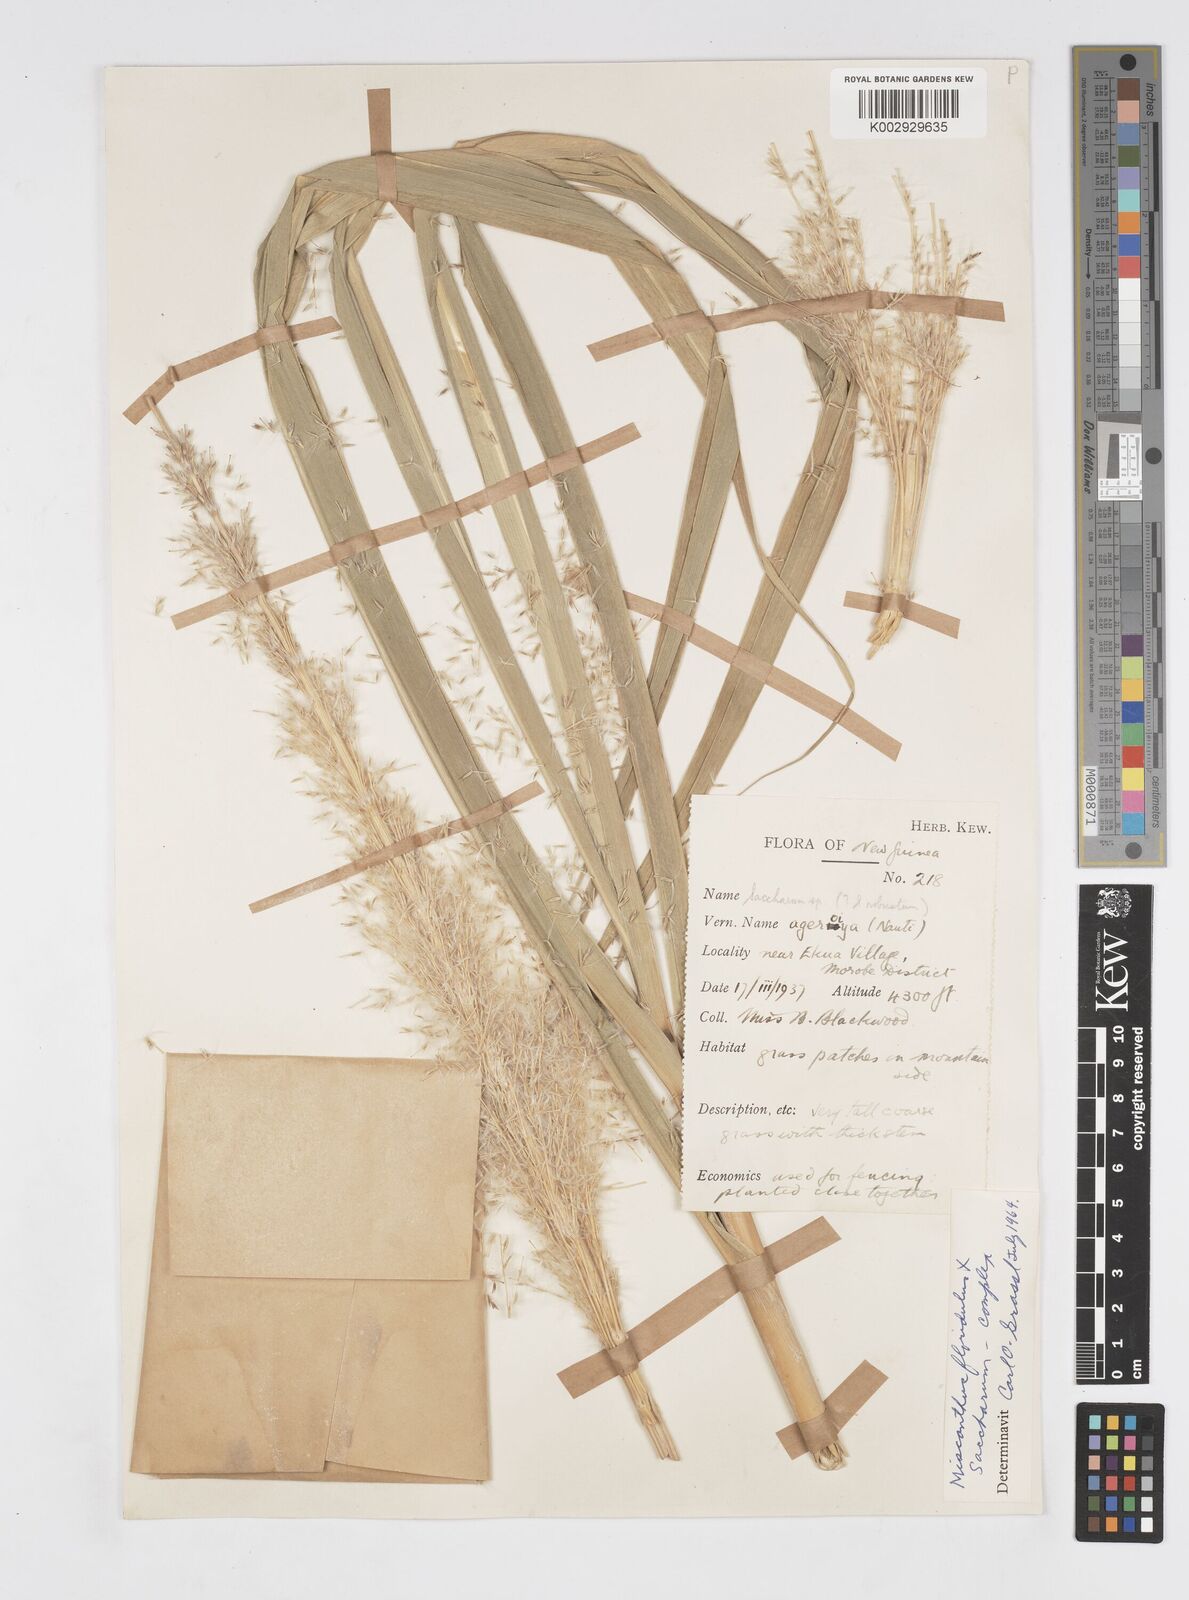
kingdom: Plantae
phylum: Tracheophyta
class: Liliopsida
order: Poales
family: Poaceae
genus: Saccharum
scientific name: Saccharum
